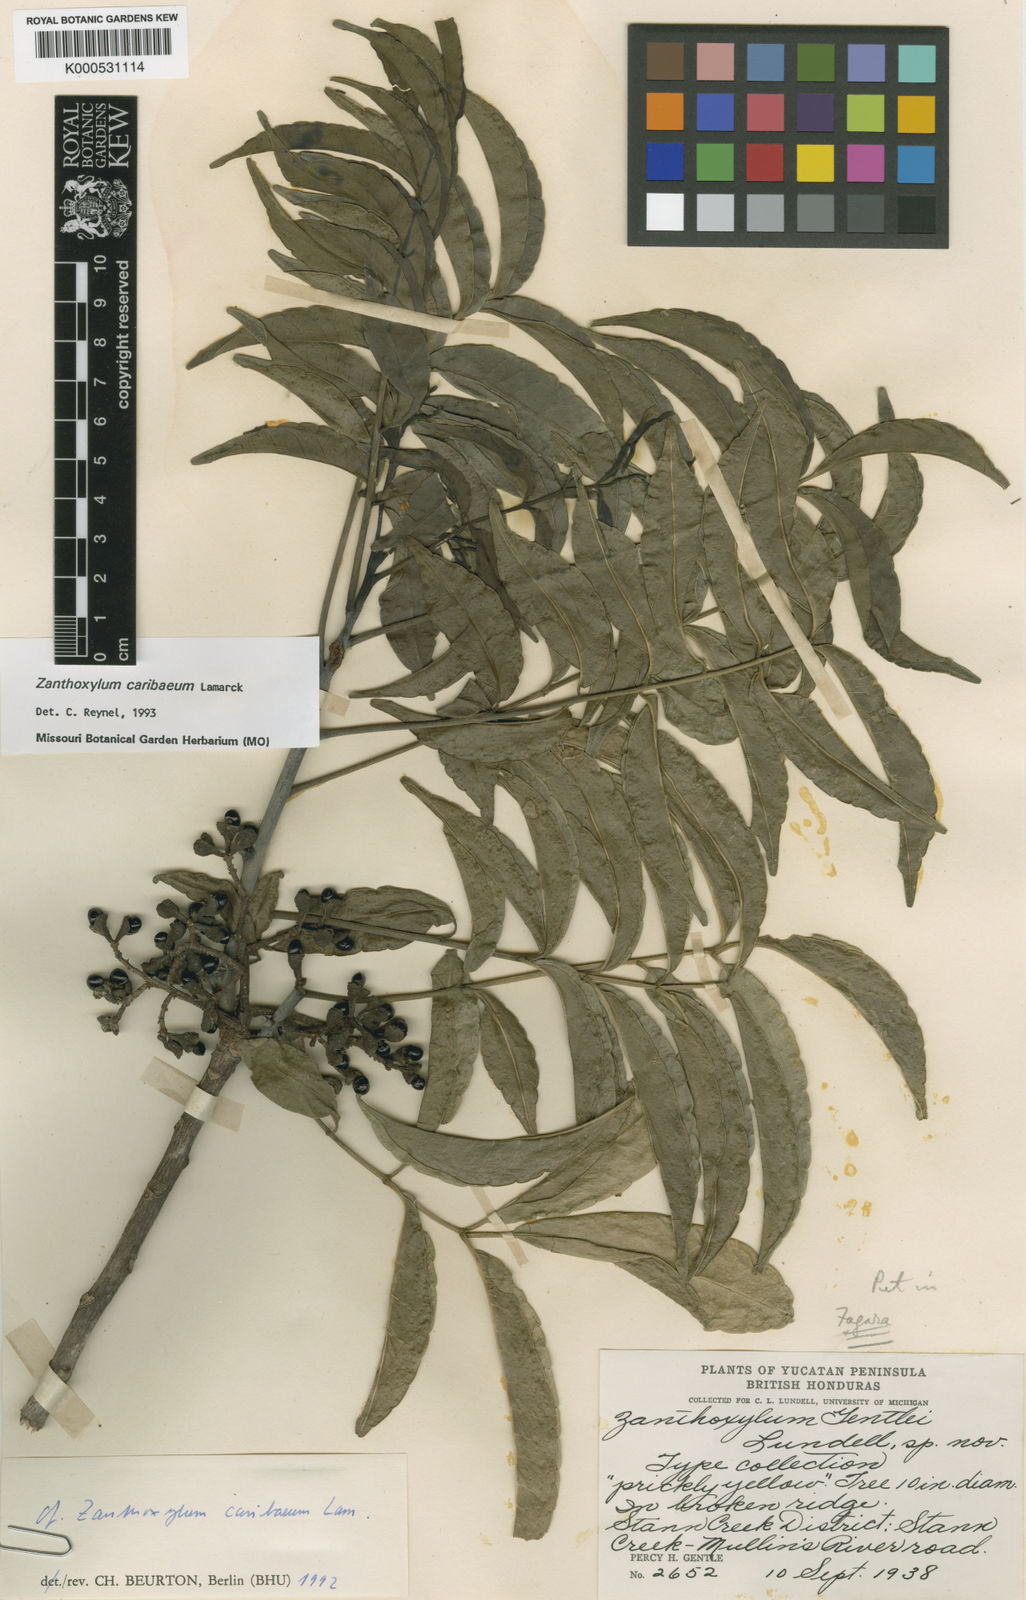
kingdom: Plantae
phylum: Tracheophyta
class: Magnoliopsida
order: Sapindales
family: Rutaceae
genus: Zanthoxylum
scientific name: Zanthoxylum caribaeum
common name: Prickly yellow
